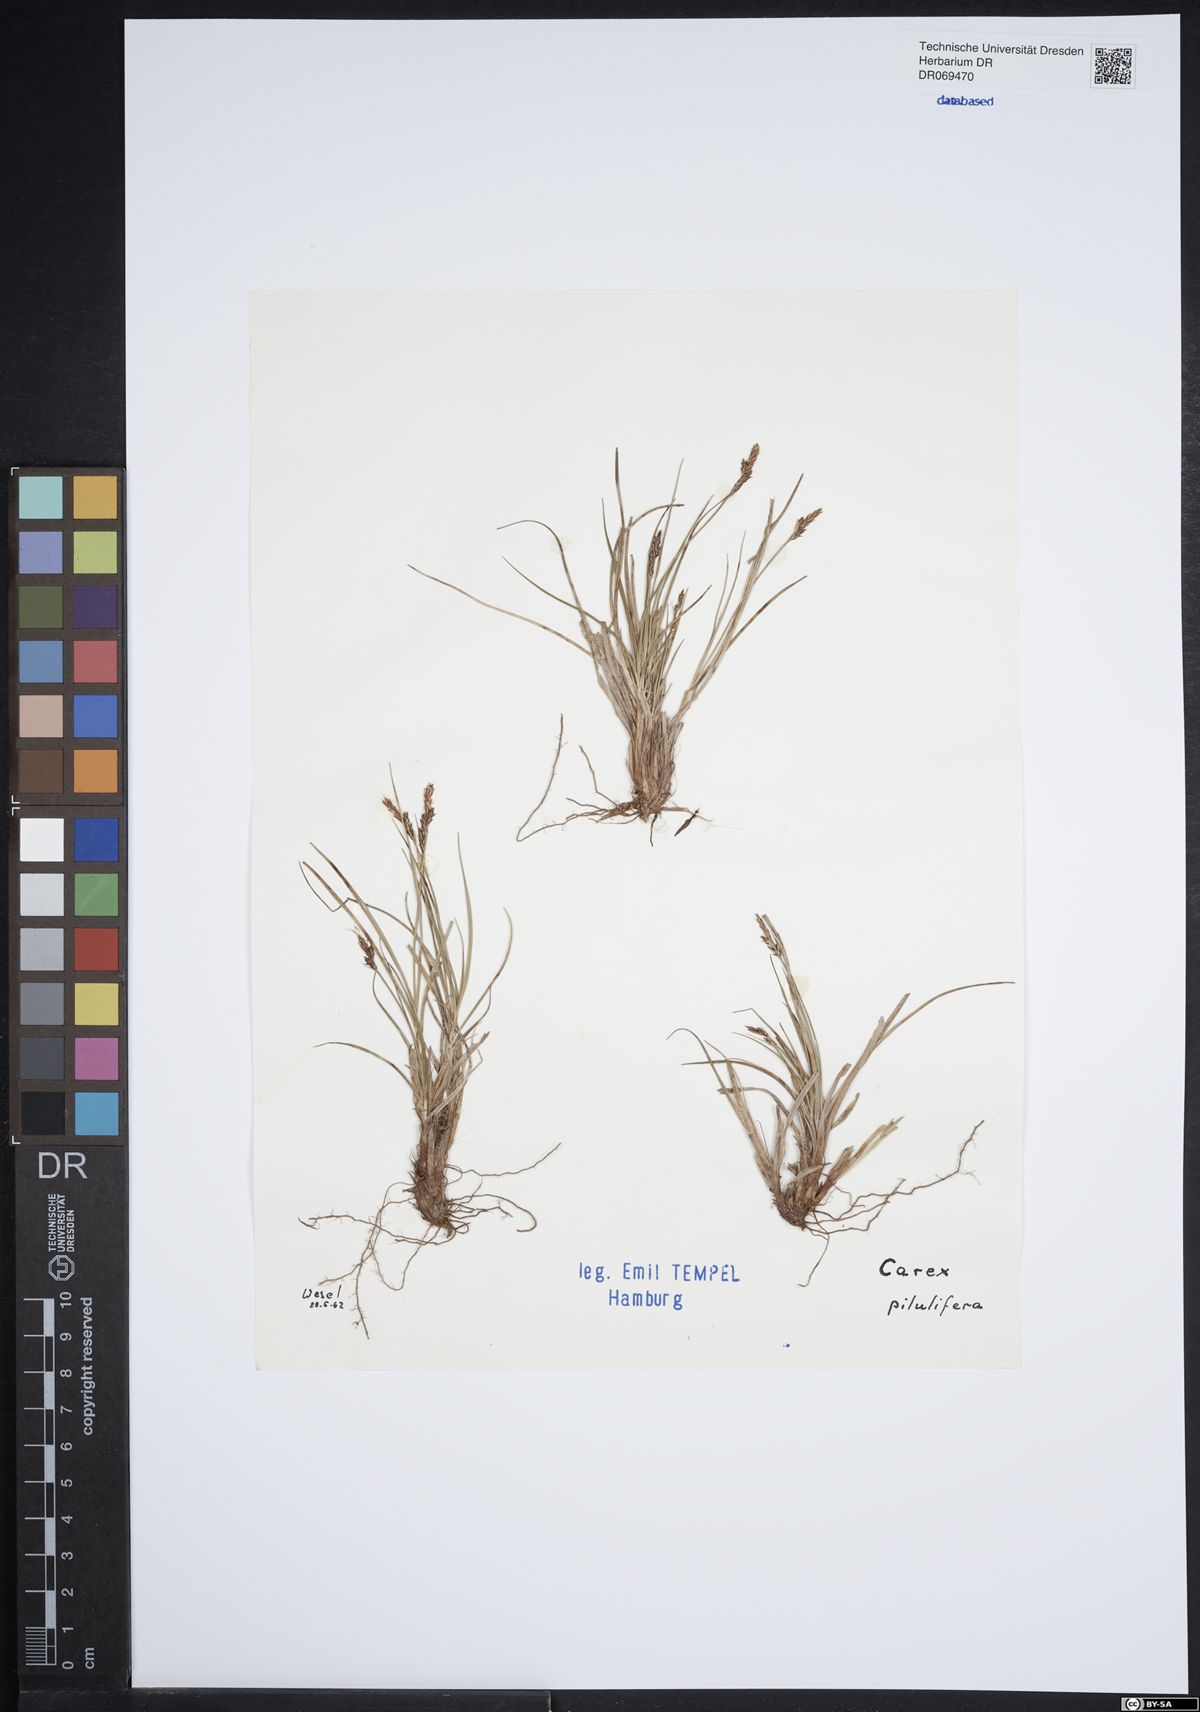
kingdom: Plantae
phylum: Tracheophyta
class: Liliopsida
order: Poales
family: Cyperaceae
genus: Carex
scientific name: Carex pilulifera
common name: Pill sedge
